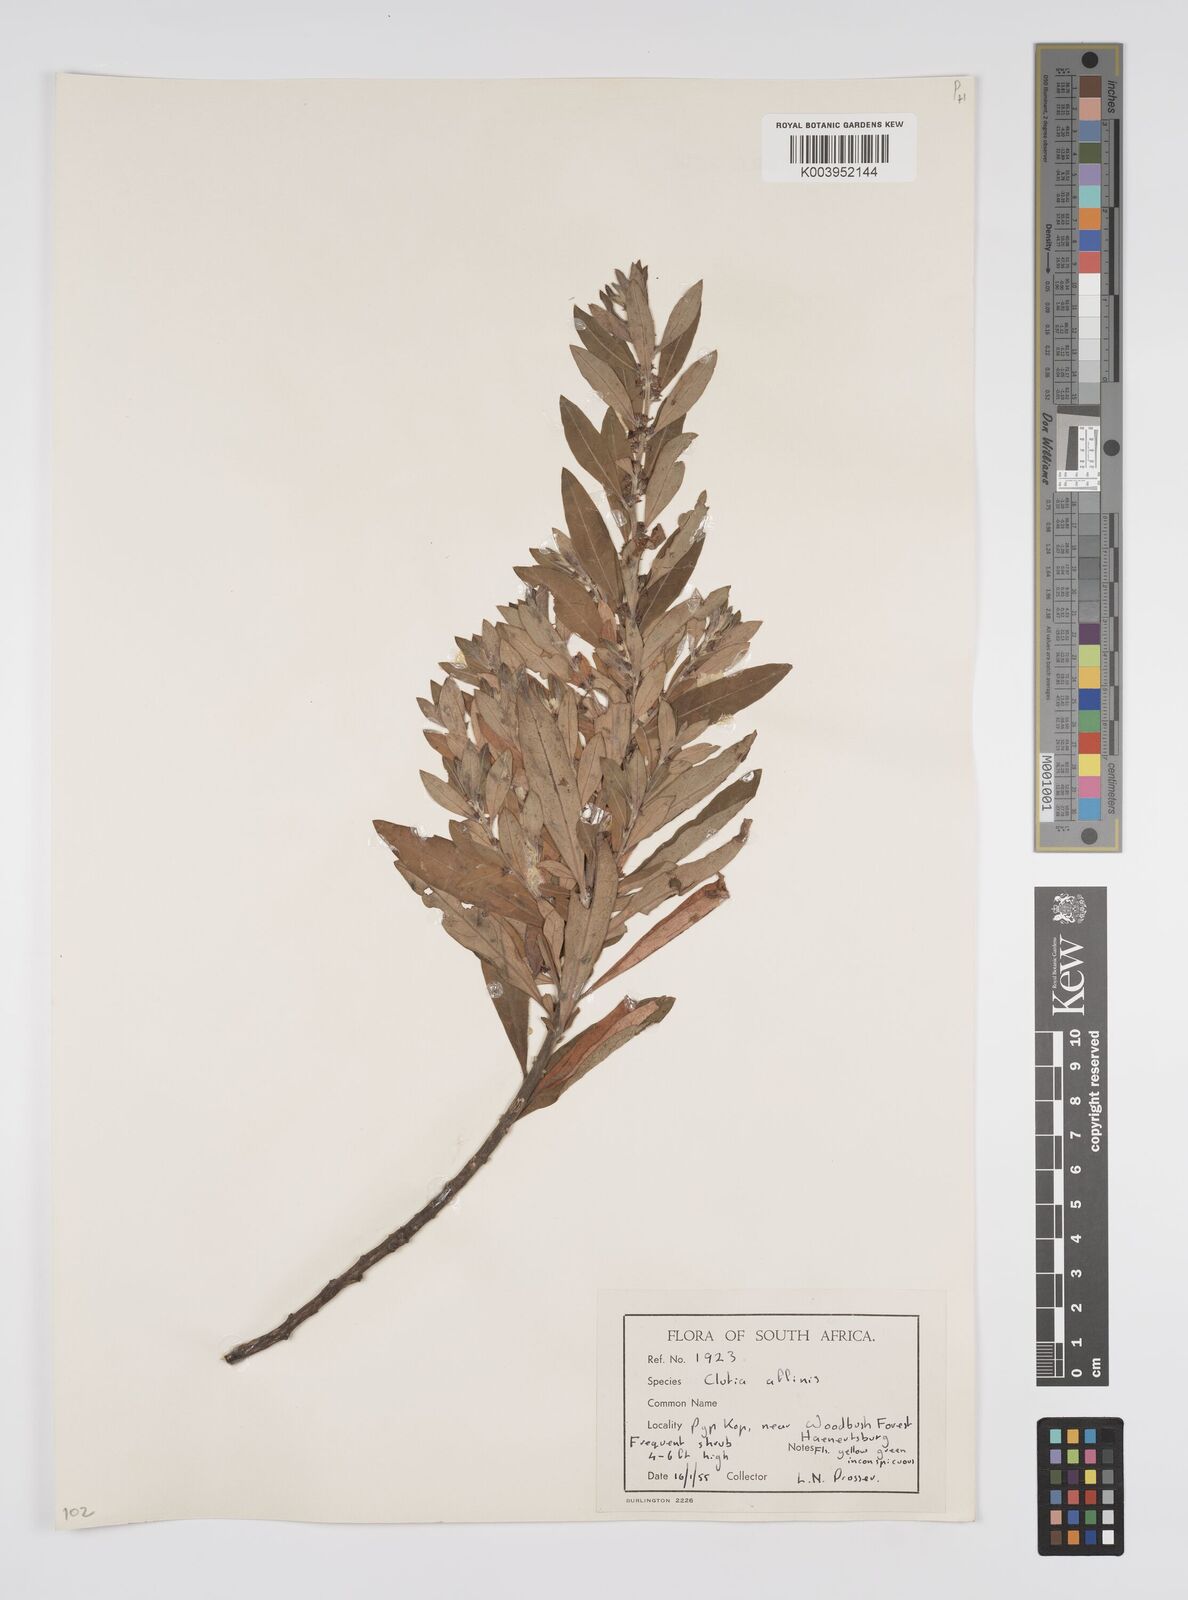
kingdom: Plantae
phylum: Tracheophyta
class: Magnoliopsida
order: Malpighiales
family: Peraceae
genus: Clutia
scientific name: Clutia affinis
